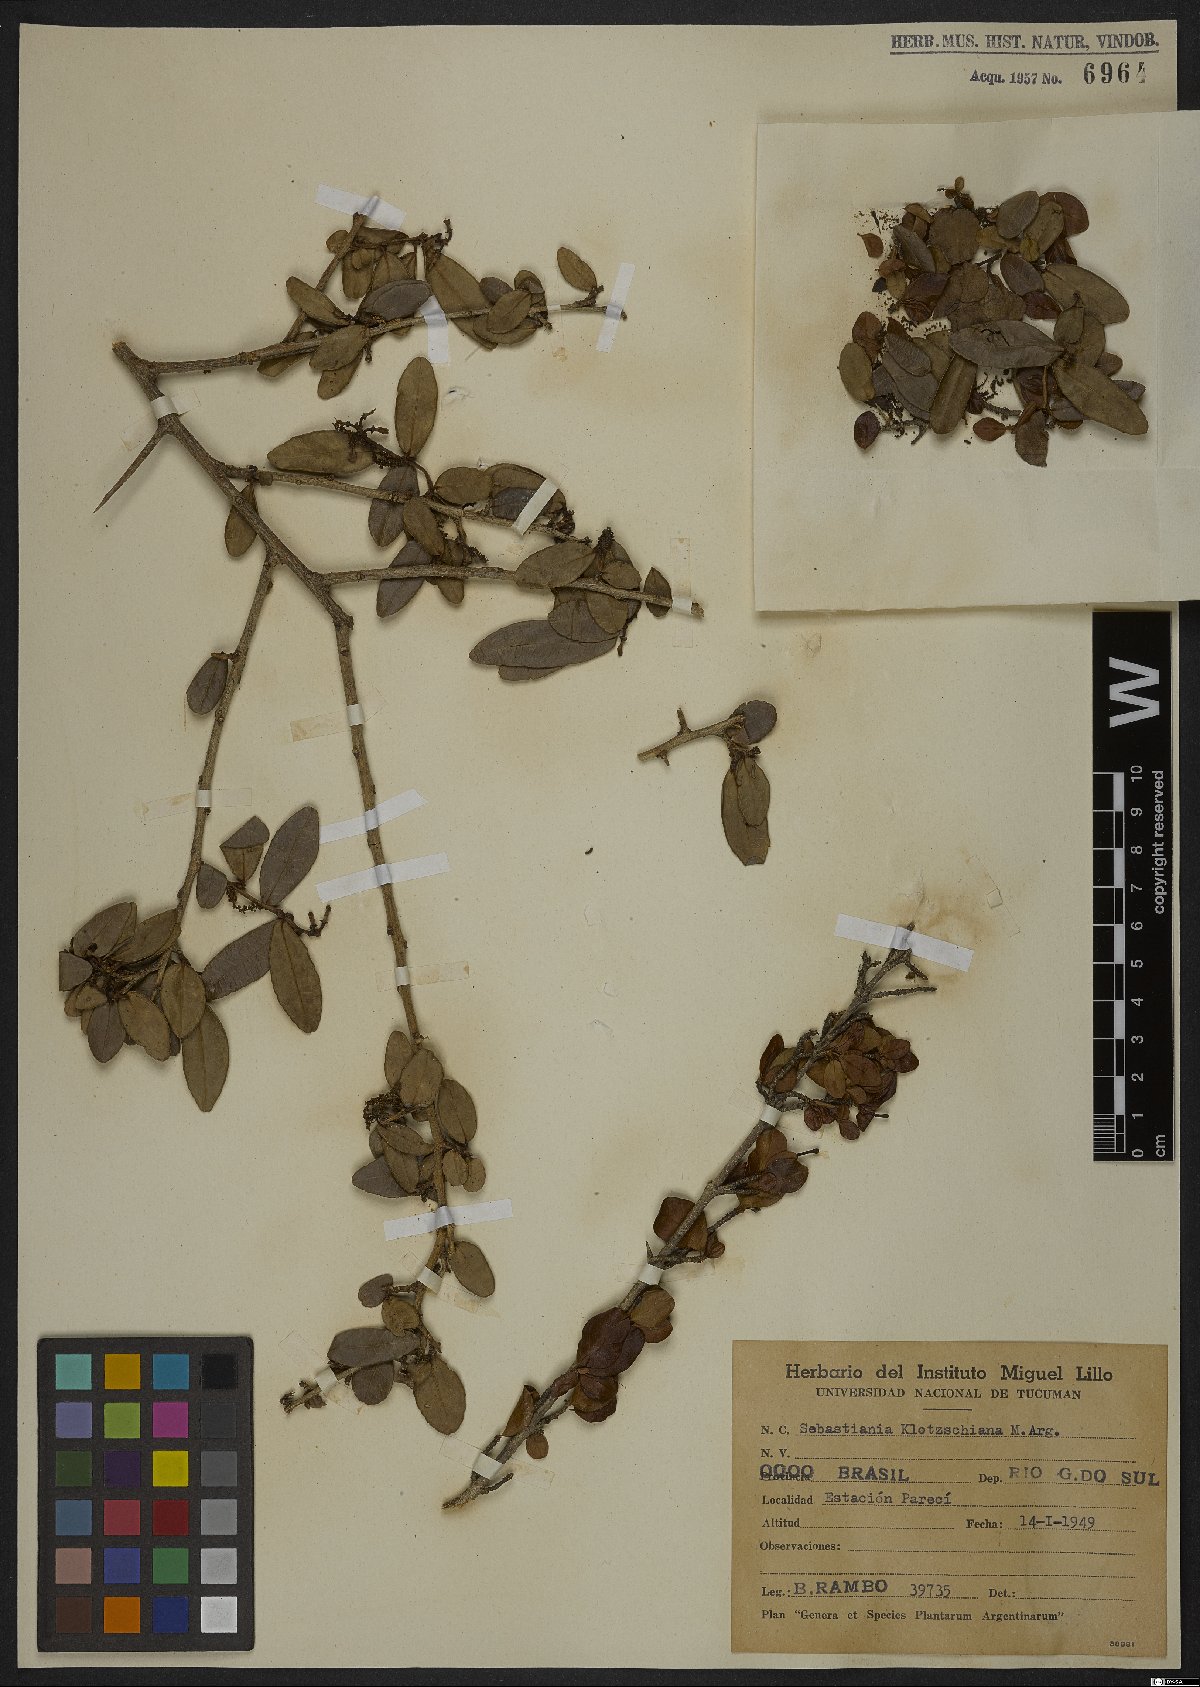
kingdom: Plantae
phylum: Tracheophyta
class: Magnoliopsida
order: Malpighiales
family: Euphorbiaceae
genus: Sebastiania
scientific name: Sebastiania klotzschiana
